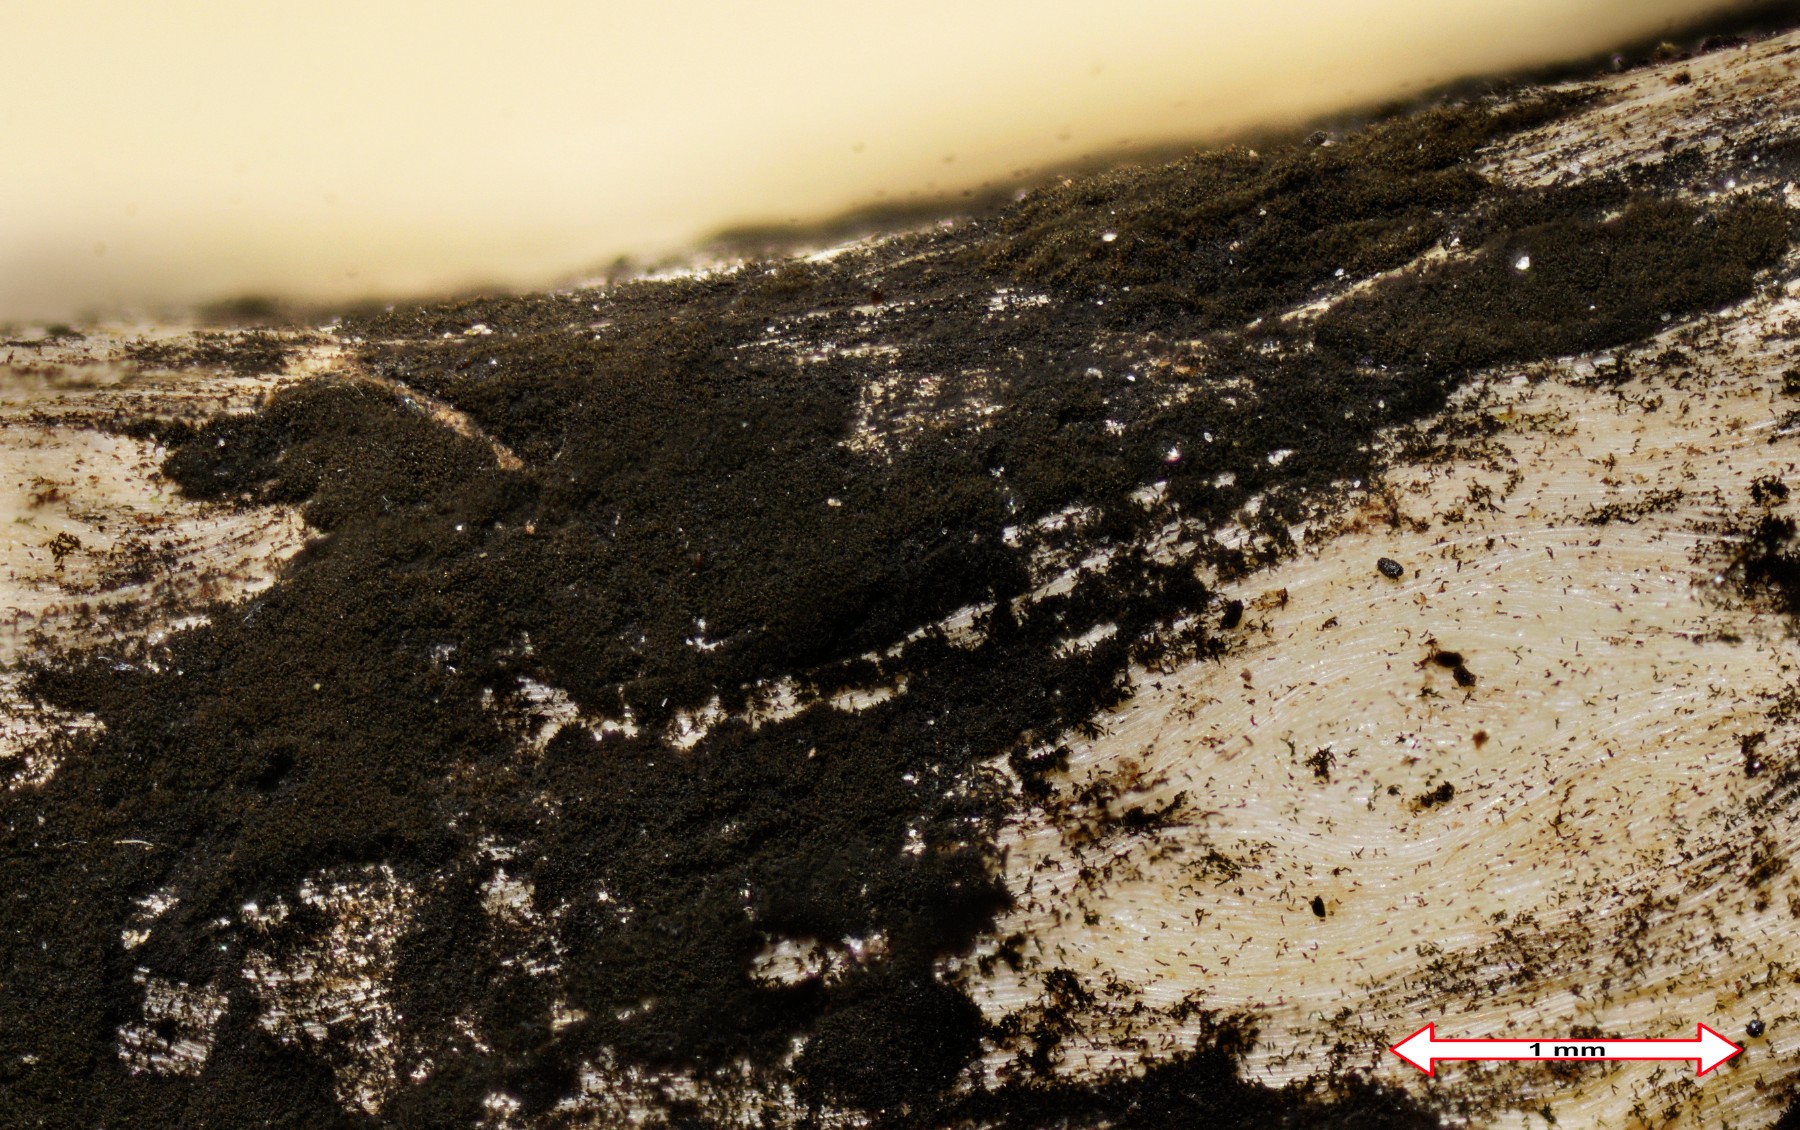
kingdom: Fungi
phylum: Ascomycota
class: Dothideomycetes
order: Pleosporales
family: Torulaceae
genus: Torula
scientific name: Torula herbarum
